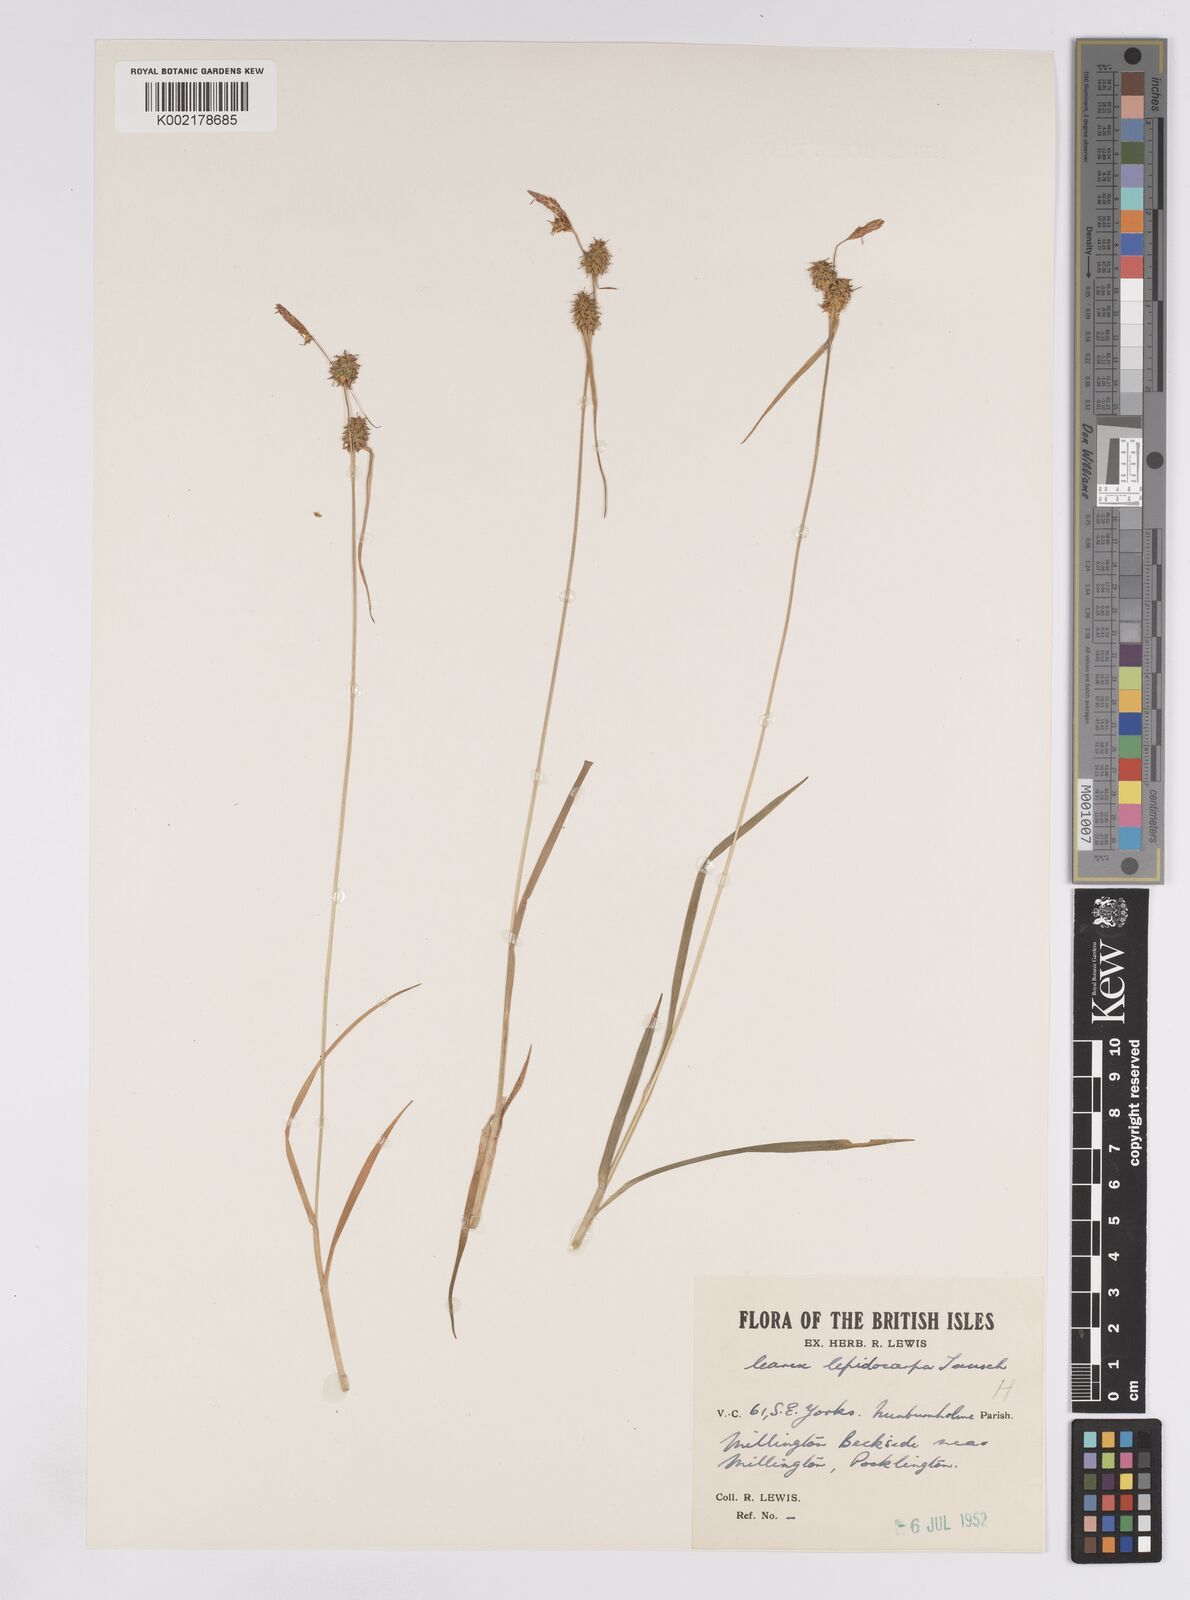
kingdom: Plantae
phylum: Tracheophyta
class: Liliopsida
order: Poales
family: Cyperaceae
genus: Carex
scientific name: Carex lepidocarpa
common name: Long-stalked yellow-sedge
